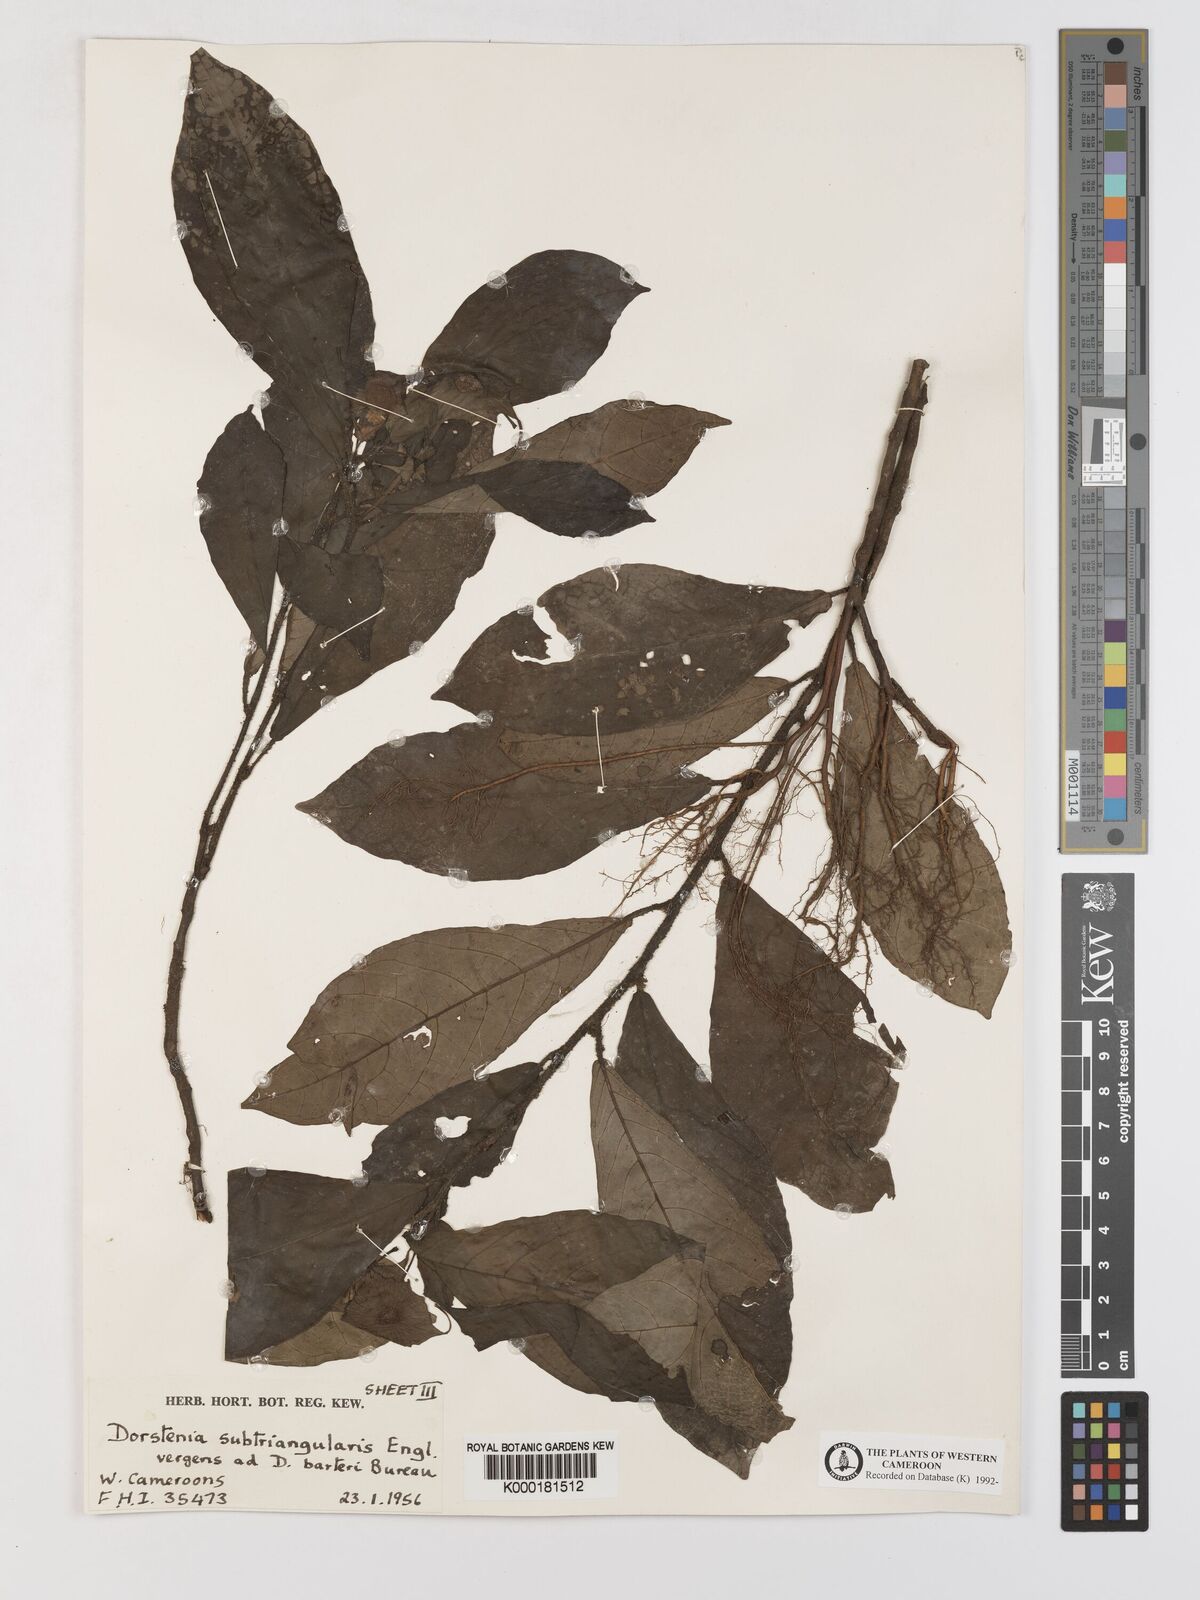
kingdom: Plantae
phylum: Tracheophyta
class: Magnoliopsida
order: Rosales
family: Moraceae
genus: Dorstenia
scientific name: Dorstenia barteri
